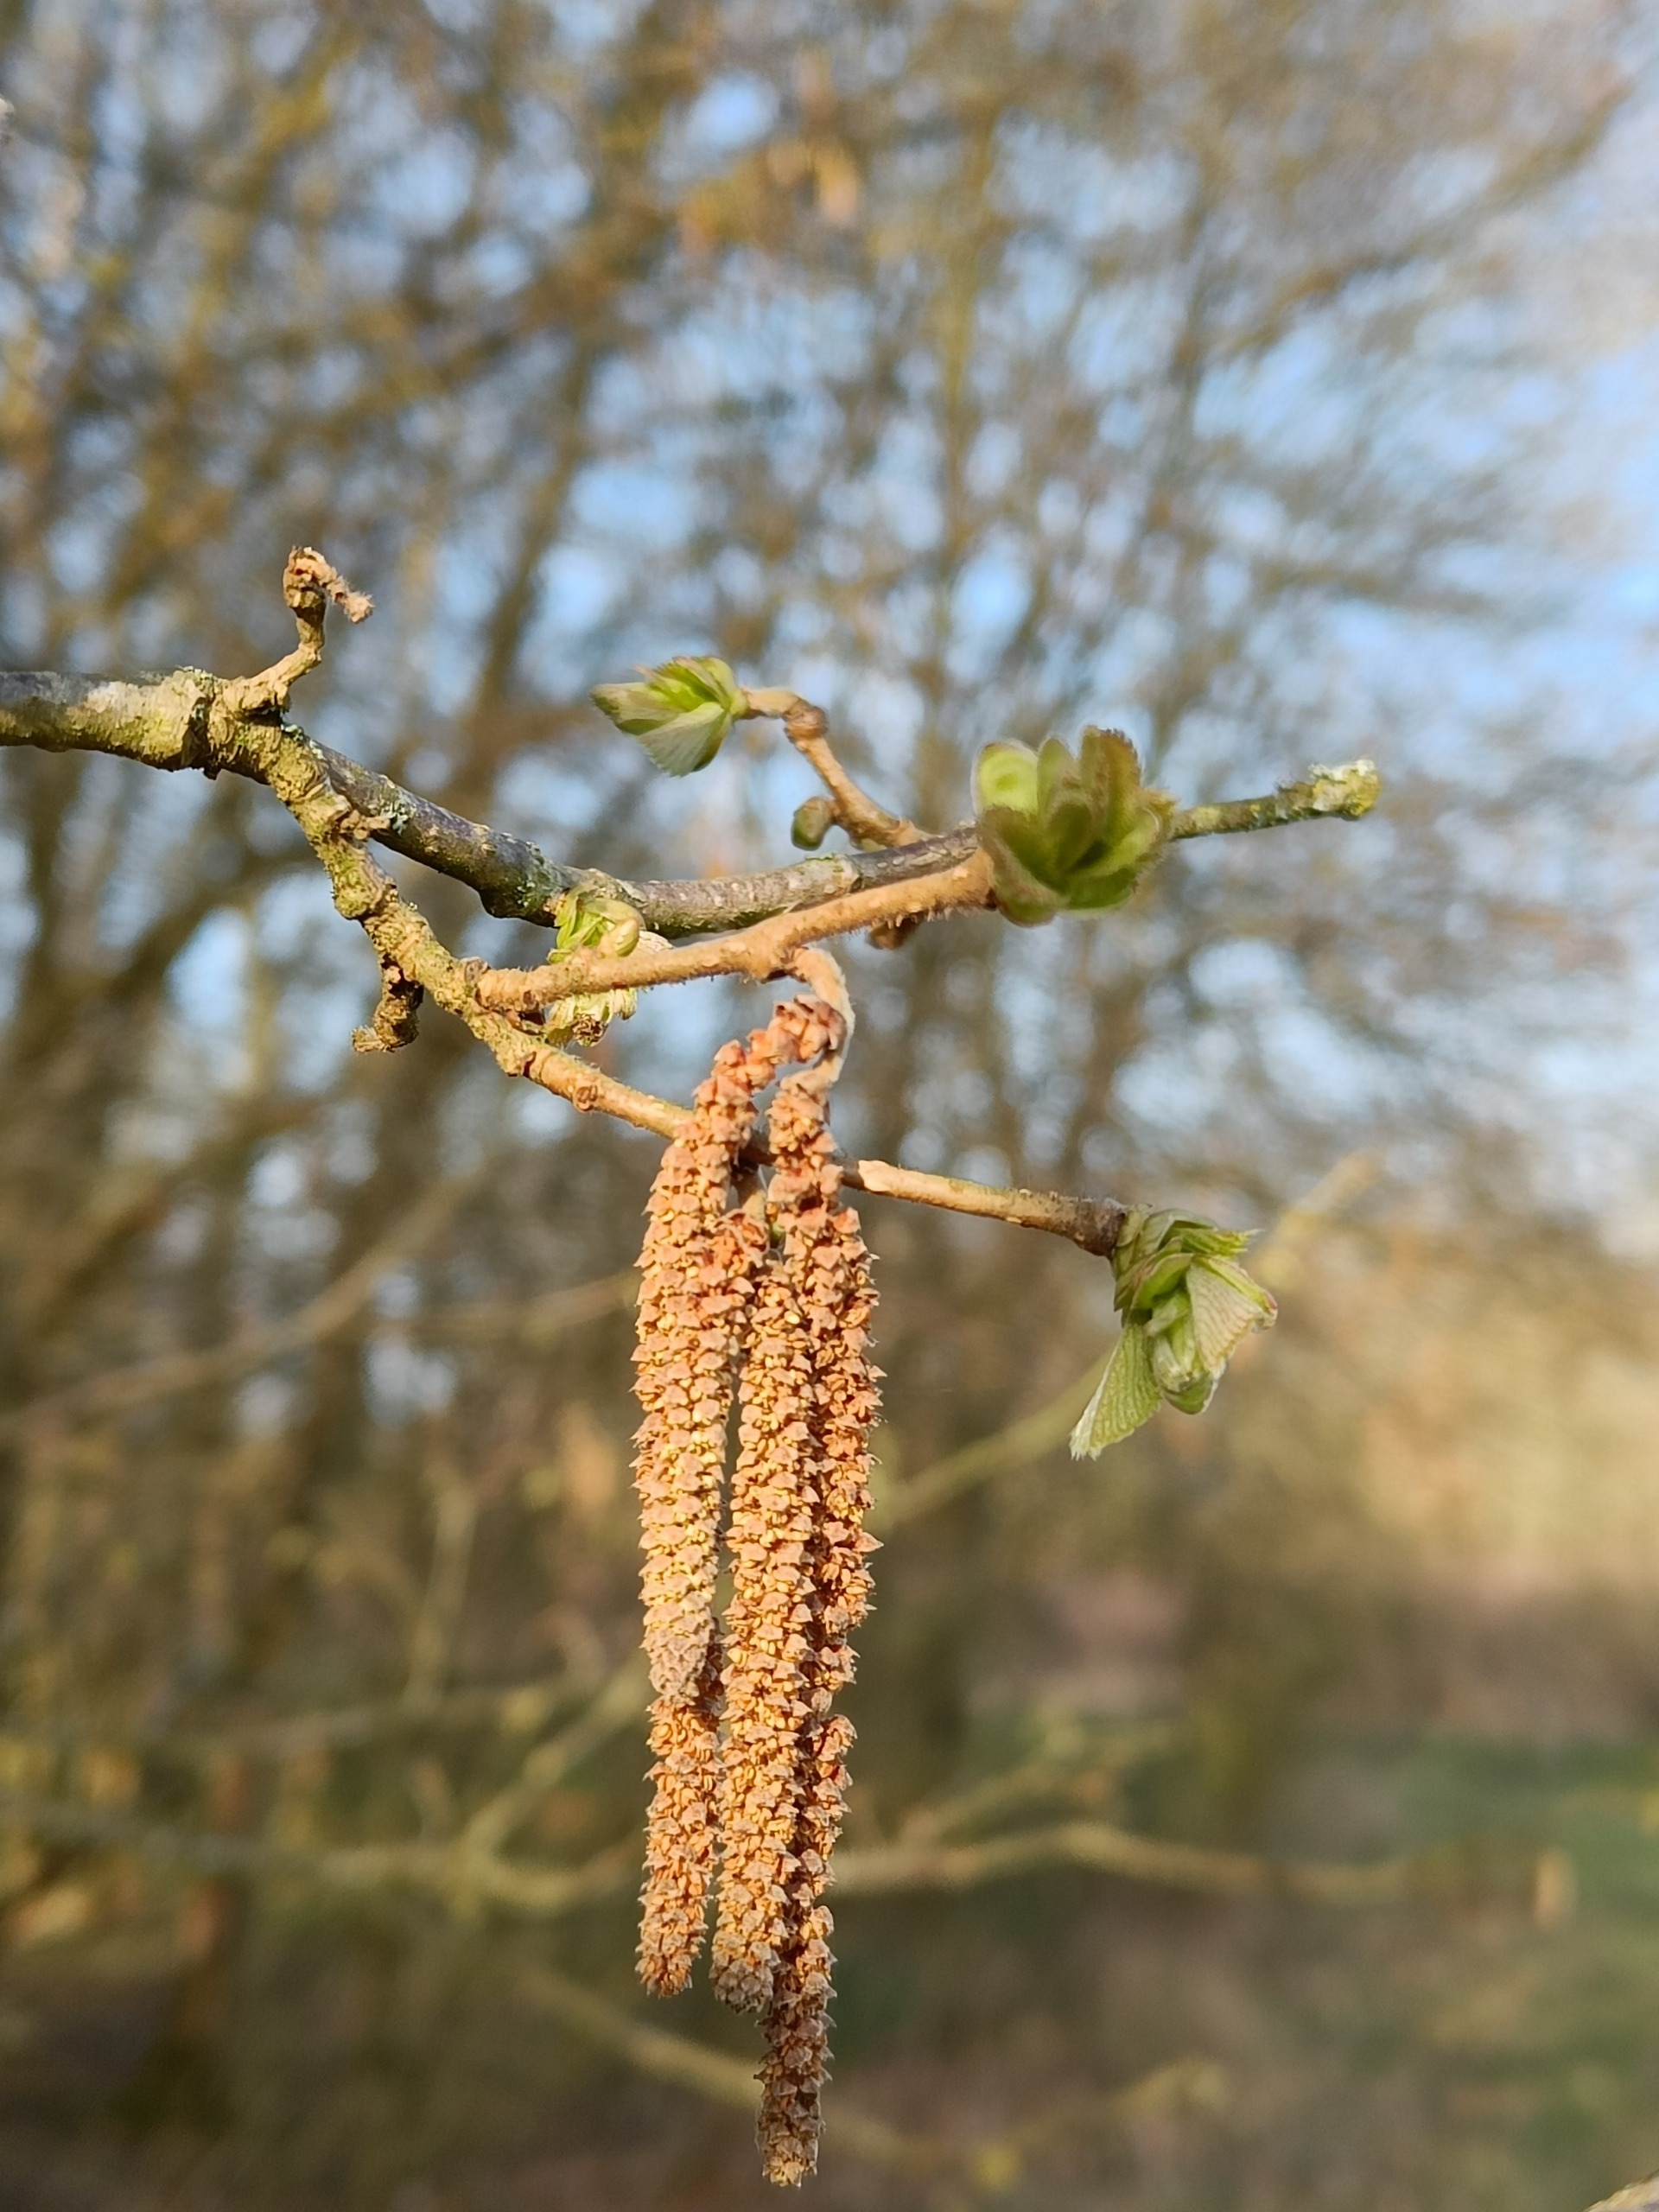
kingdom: Plantae
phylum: Tracheophyta
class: Magnoliopsida
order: Fagales
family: Betulaceae
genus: Corylus
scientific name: Corylus avellana
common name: Hassel
